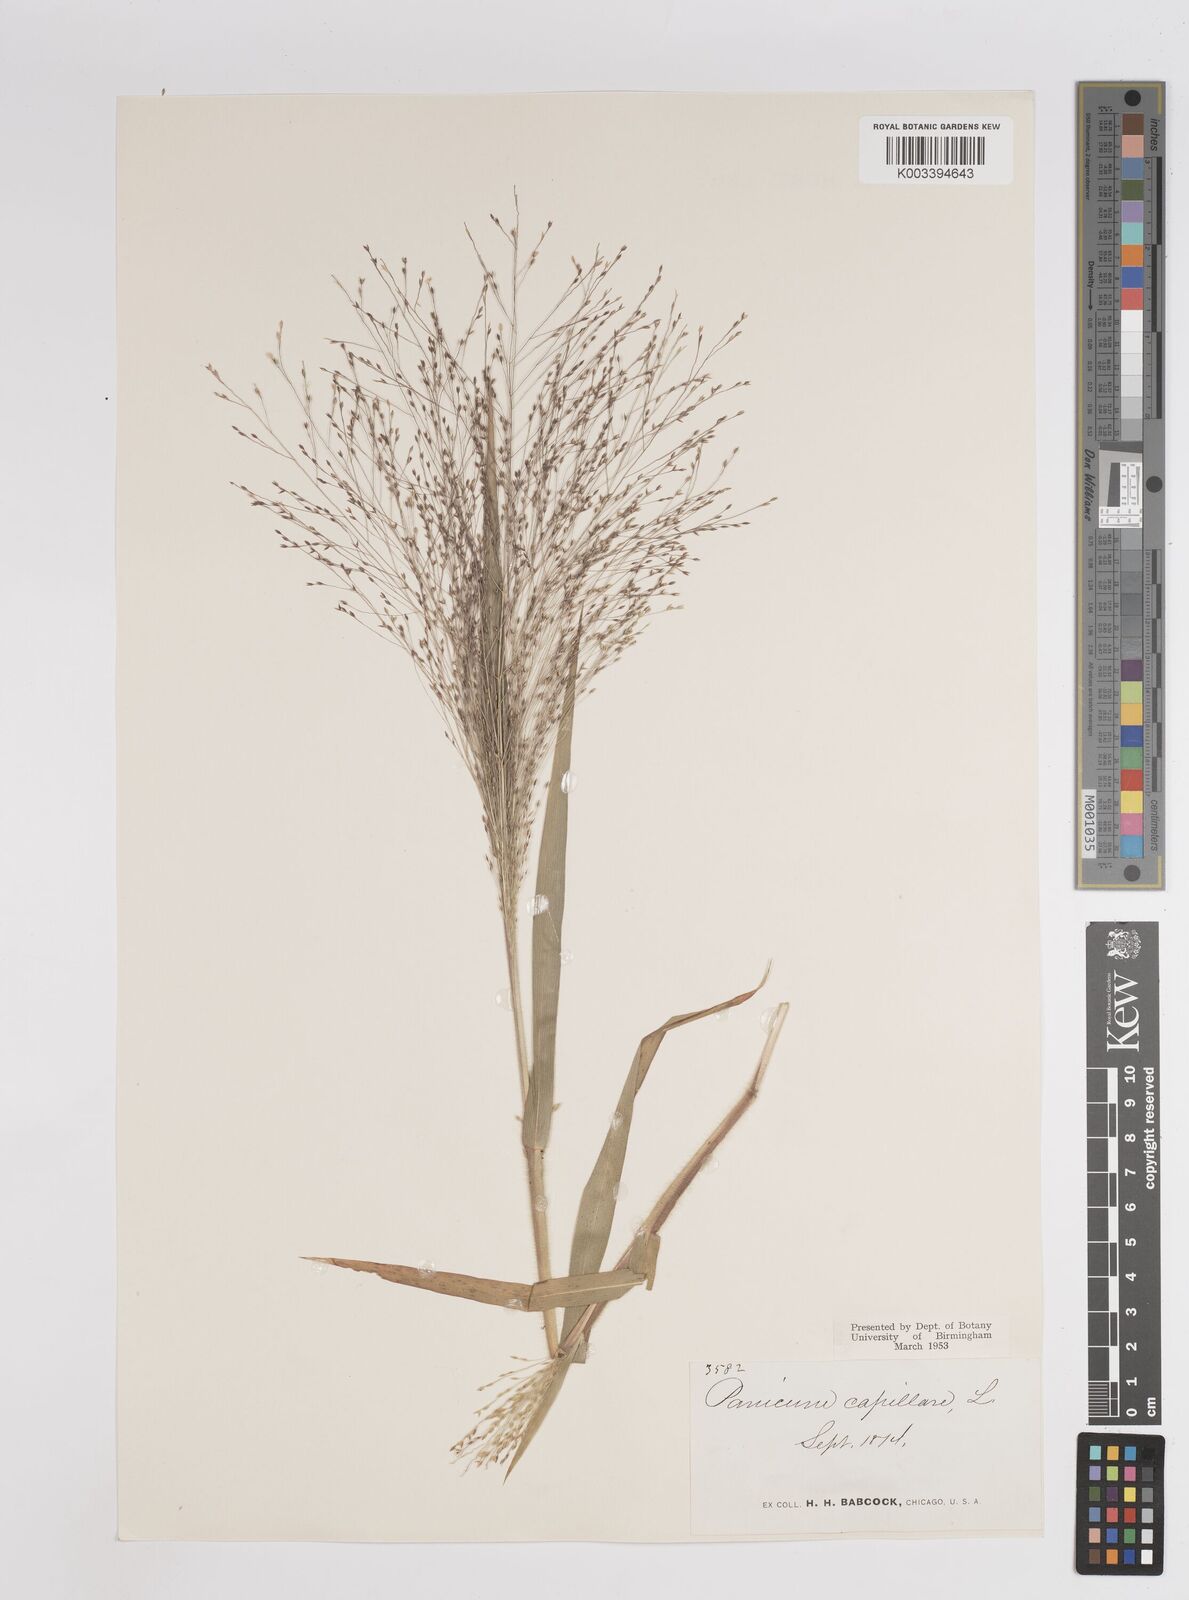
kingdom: Plantae
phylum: Tracheophyta
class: Liliopsida
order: Poales
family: Poaceae
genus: Panicum
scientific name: Panicum capillare
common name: Witch-grass
